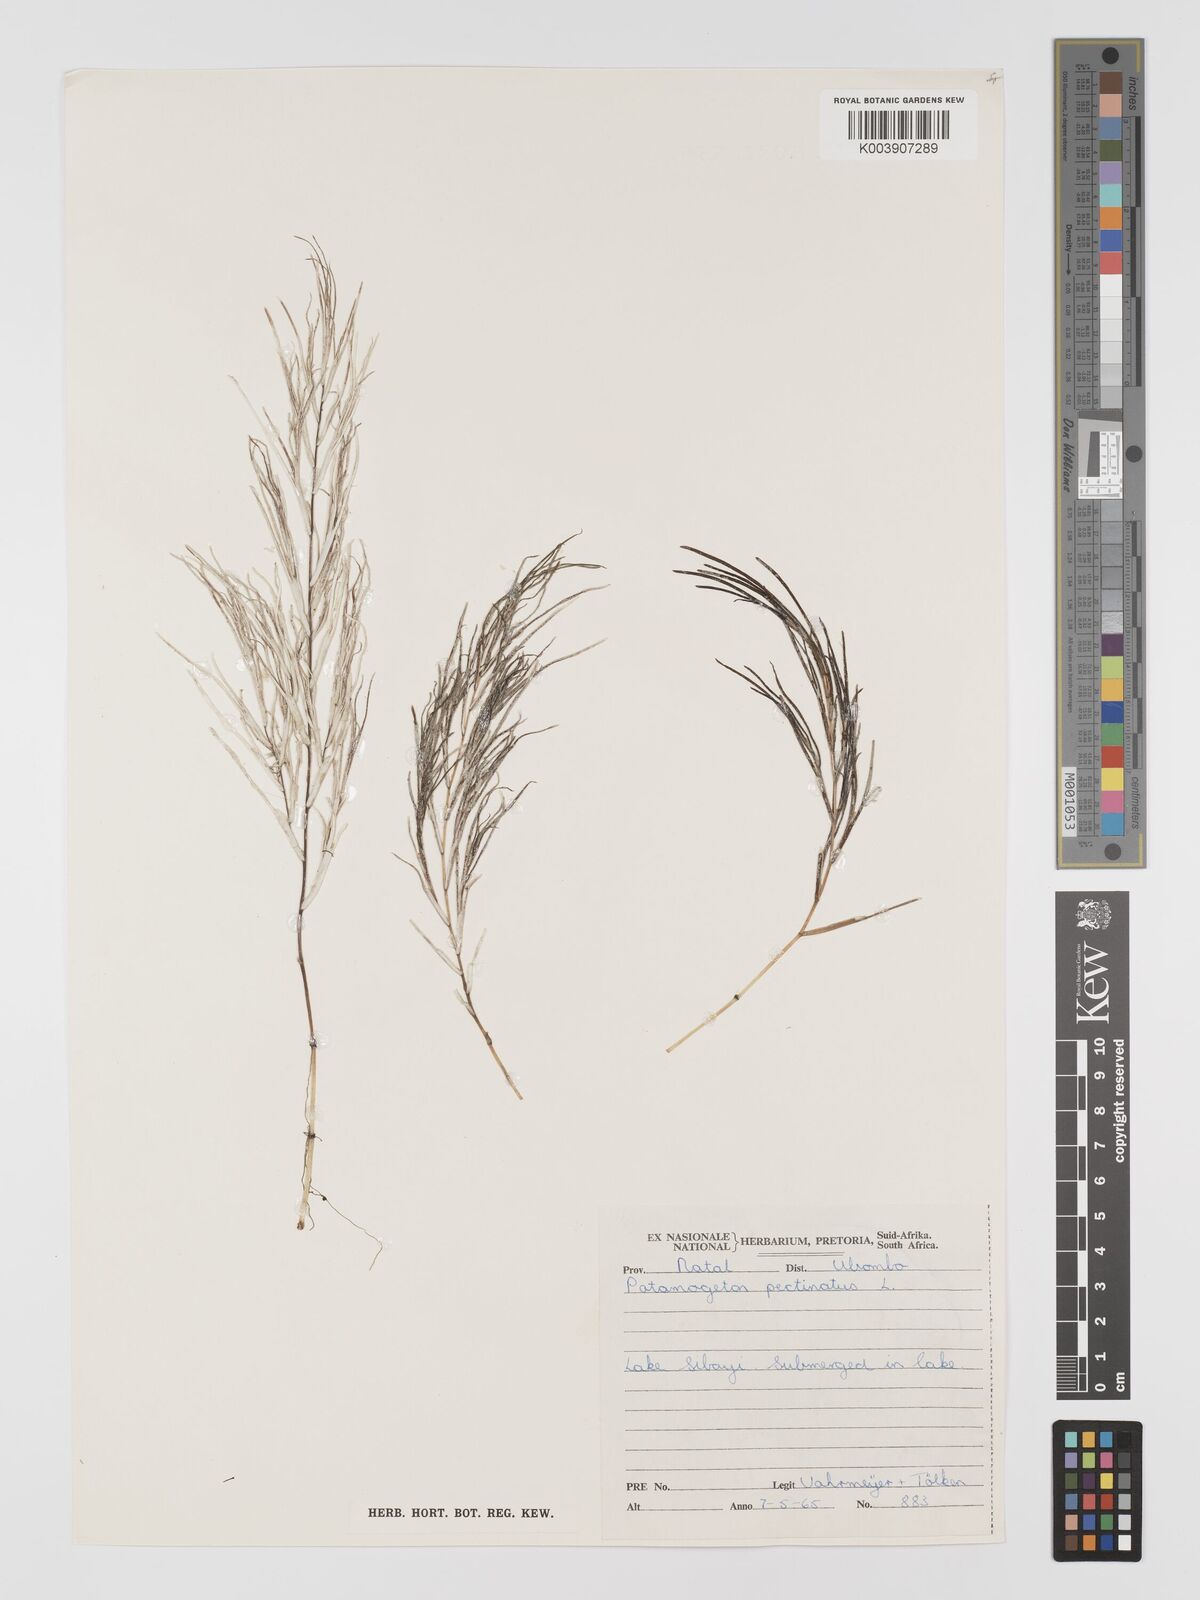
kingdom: Plantae
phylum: Tracheophyta
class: Liliopsida
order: Alismatales
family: Potamogetonaceae
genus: Stuckenia
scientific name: Stuckenia pectinata
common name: Sago pondweed
